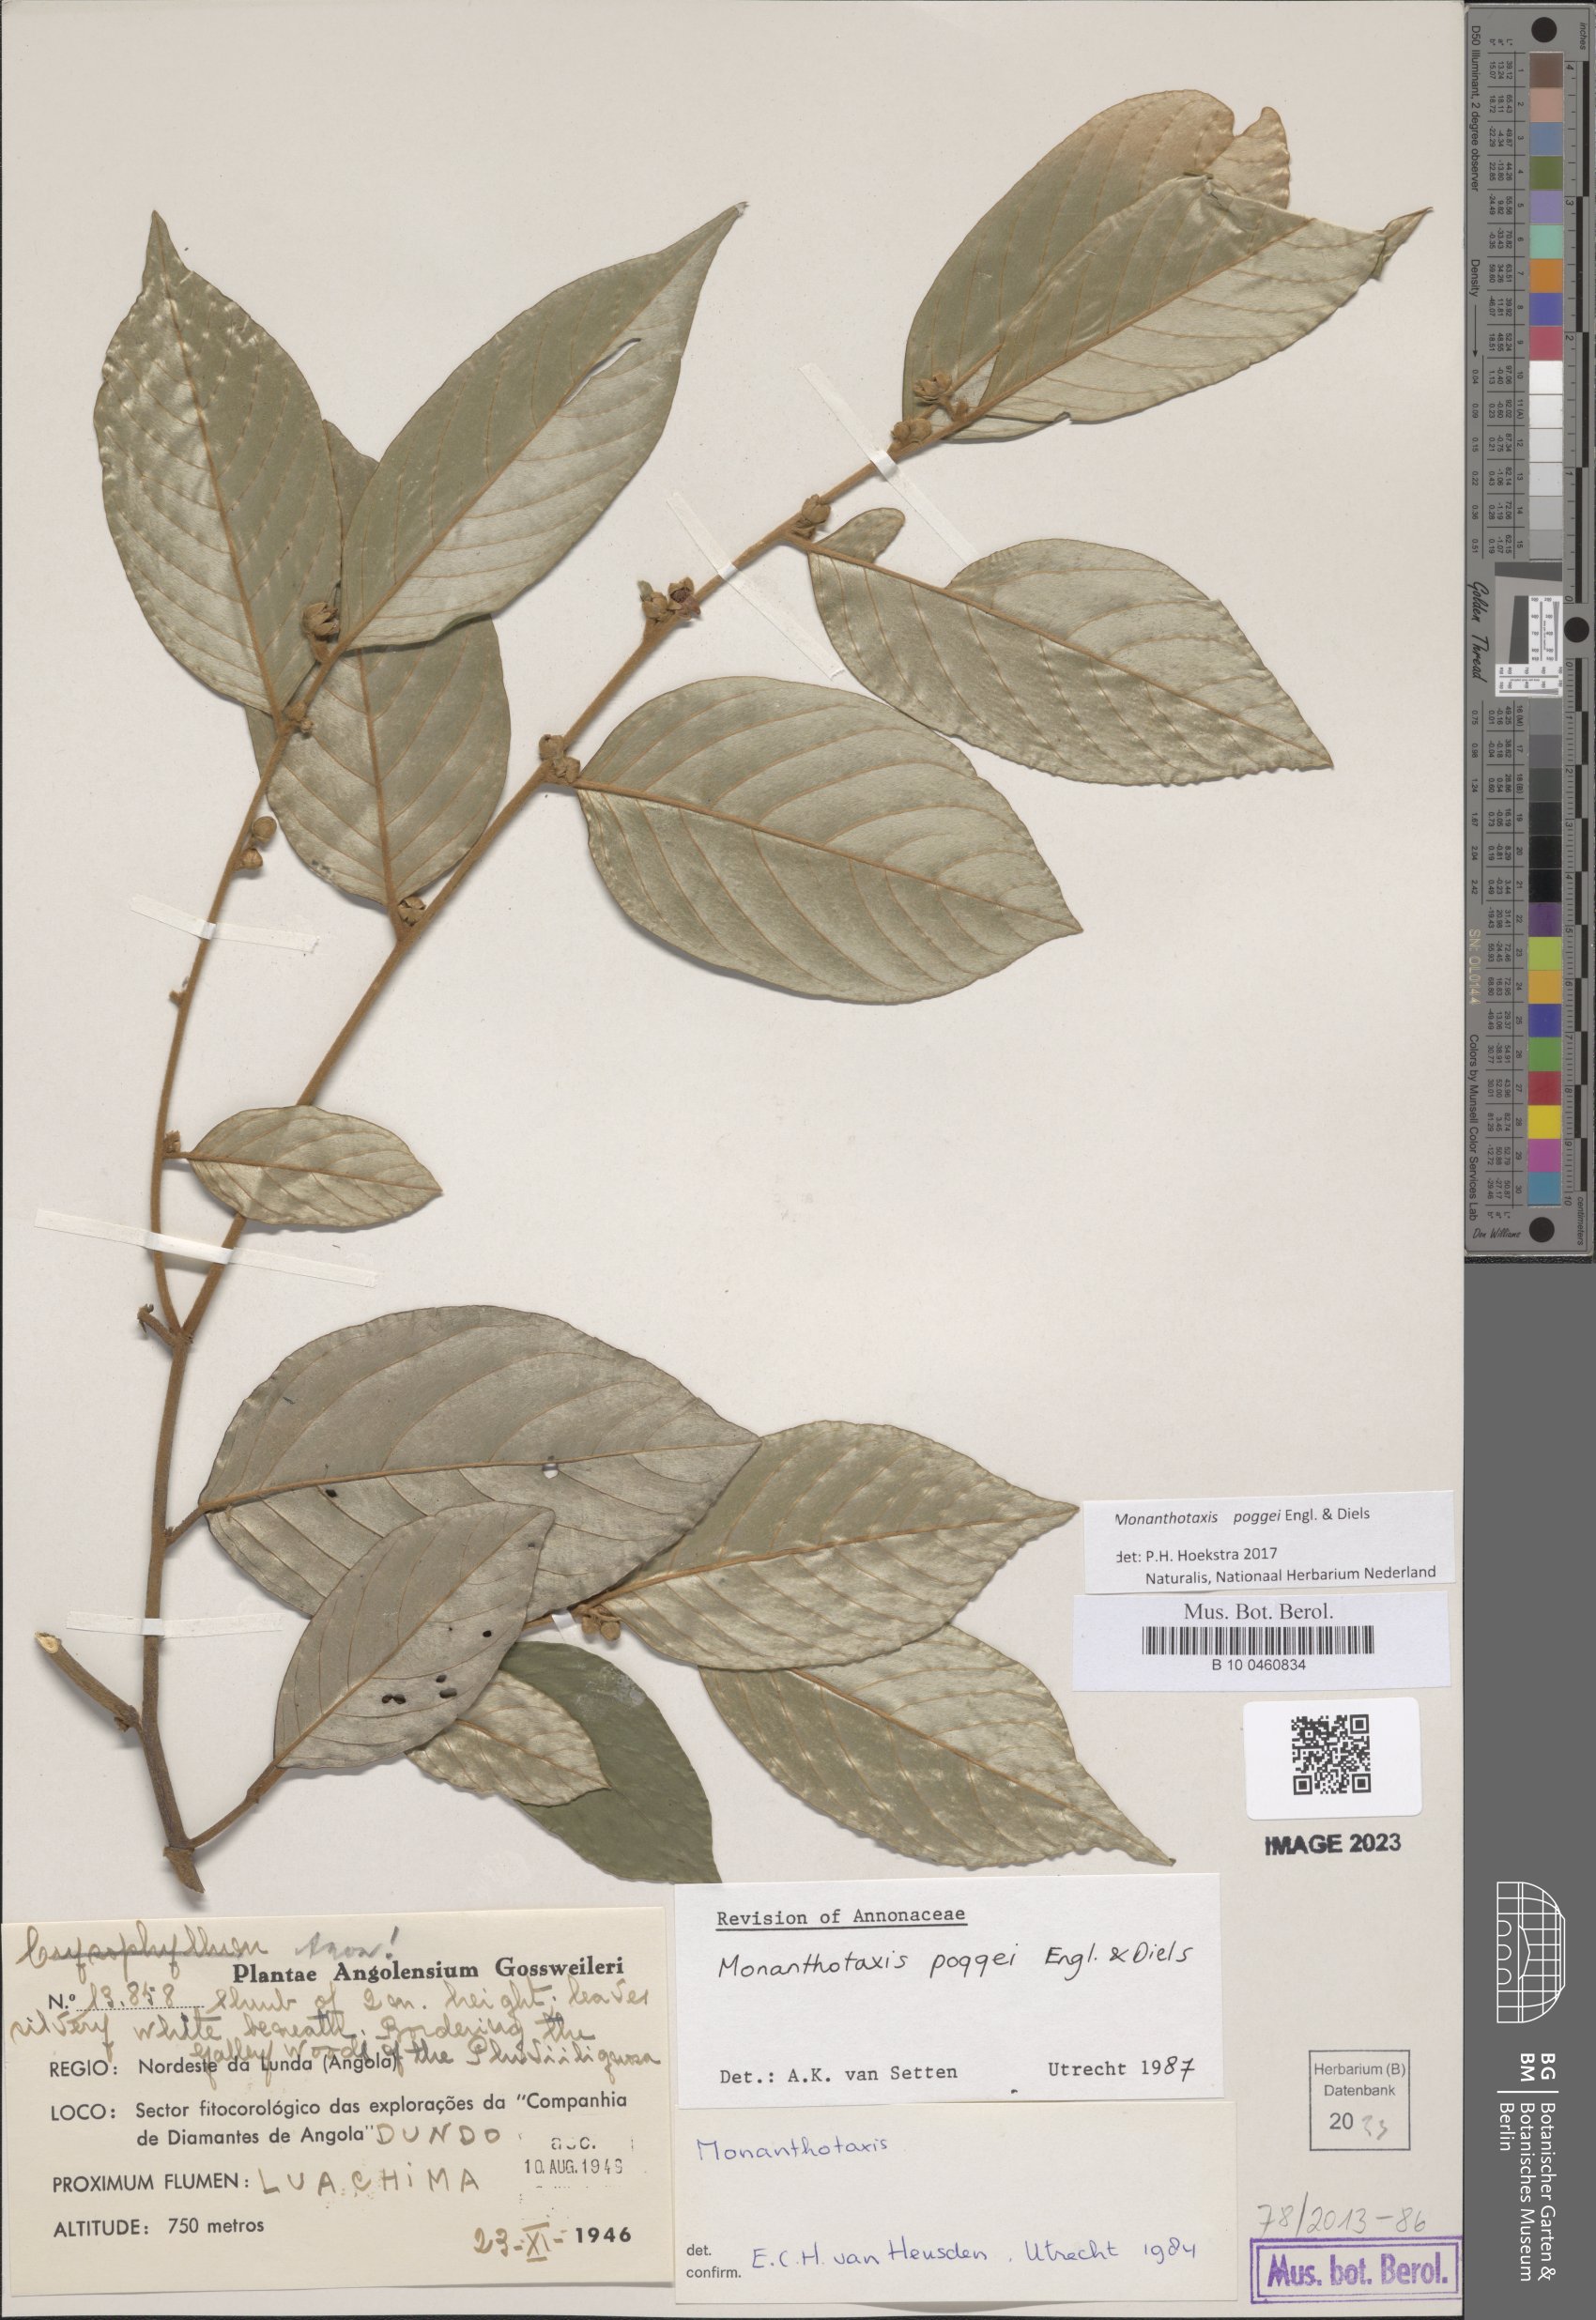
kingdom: Plantae
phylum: Tracheophyta
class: Magnoliopsida
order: Magnoliales
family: Annonaceae
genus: Monanthotaxis
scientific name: Monanthotaxis poggei
